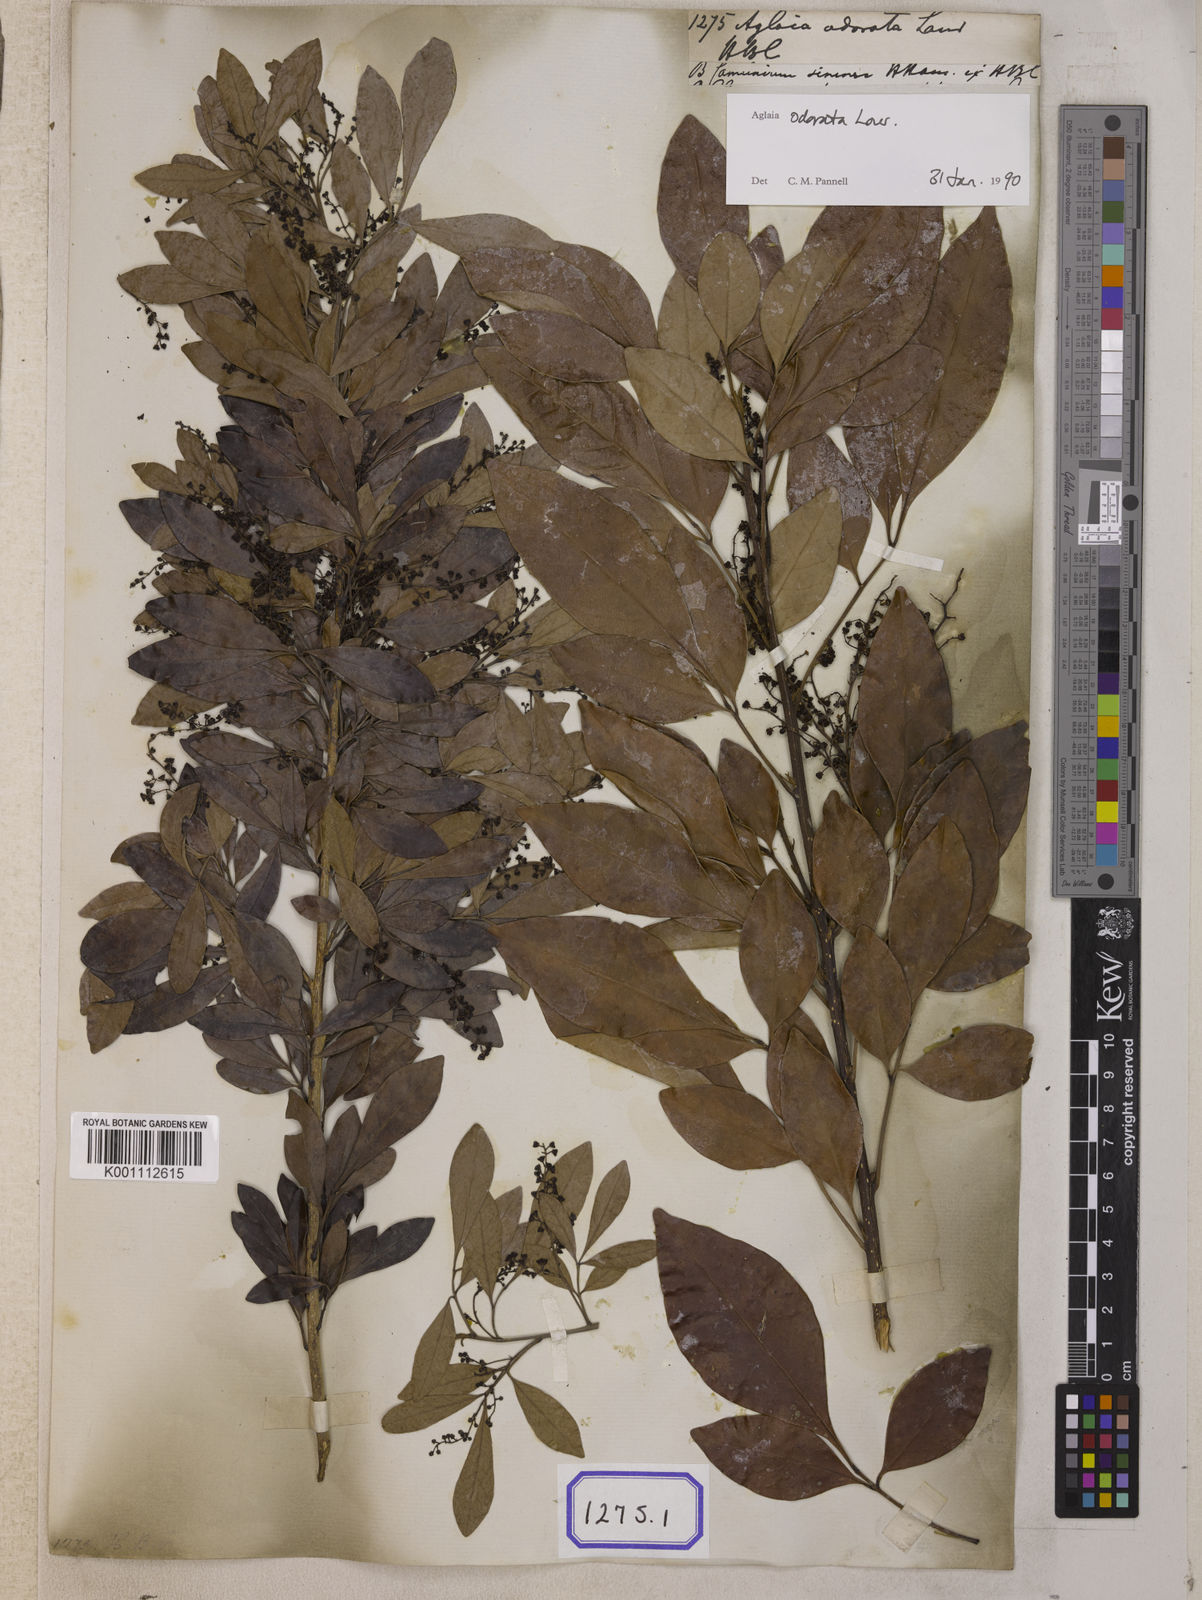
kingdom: Plantae
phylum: Tracheophyta
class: Magnoliopsida
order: Sapindales
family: Meliaceae
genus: Aglaia
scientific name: Aglaia odorata
